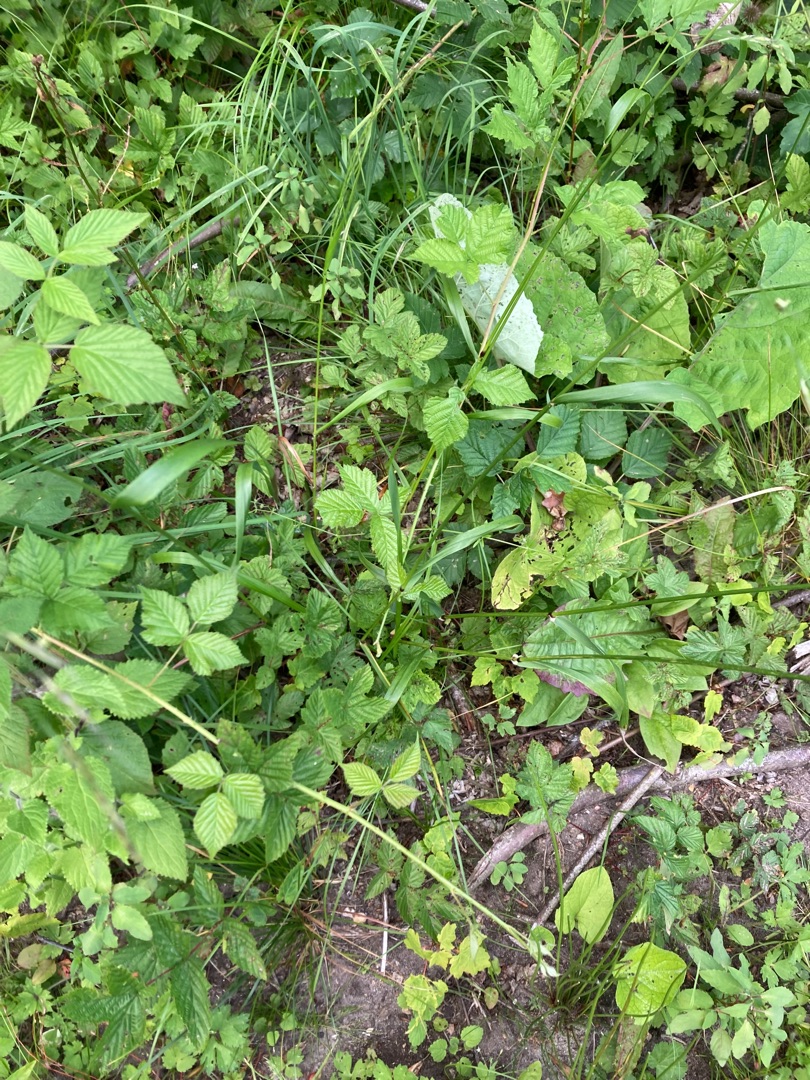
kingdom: Plantae
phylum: Tracheophyta
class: Liliopsida
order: Poales
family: Poaceae
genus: Lolium
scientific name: Lolium giganteum
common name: Kæmpe-svingel
